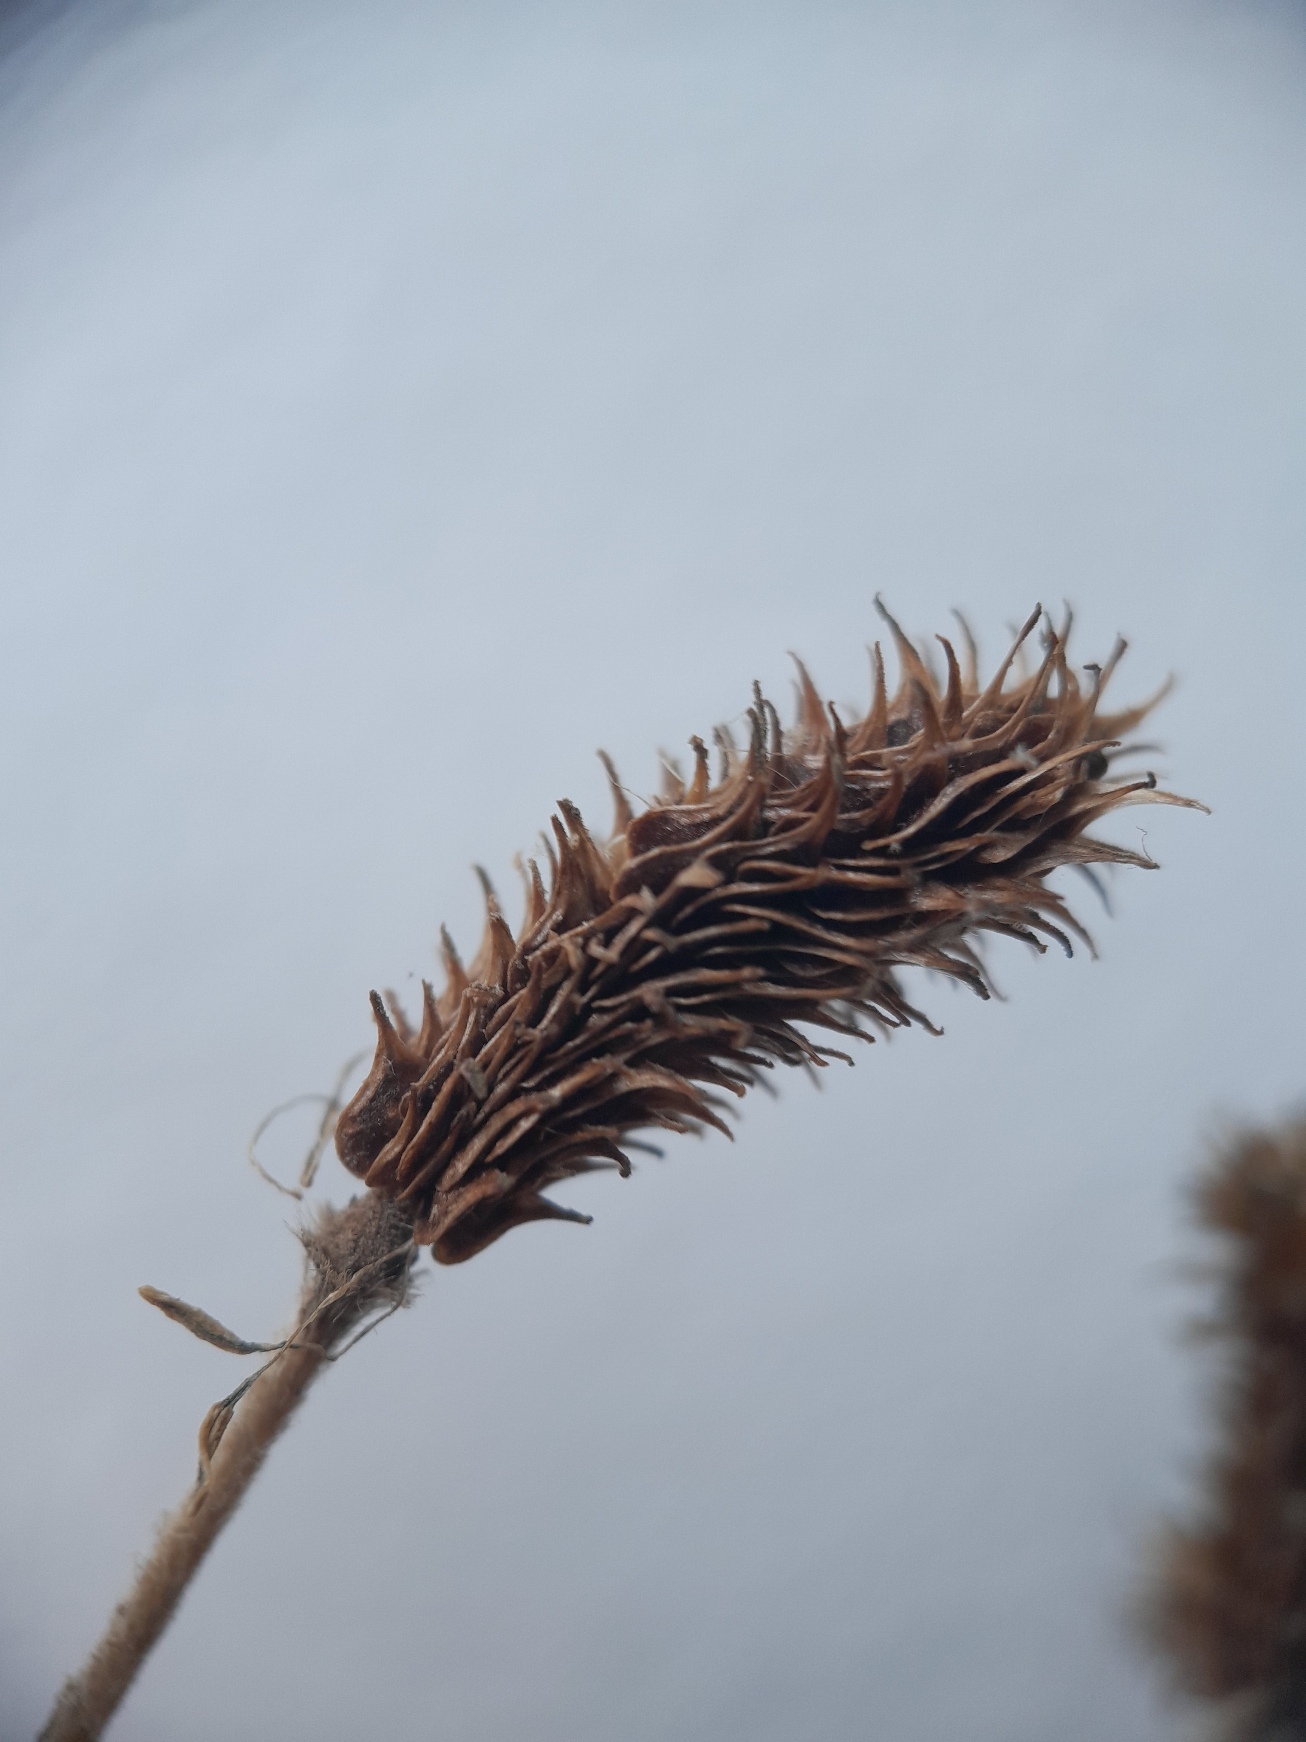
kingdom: Plantae
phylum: Tracheophyta
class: Magnoliopsida
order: Ranunculales
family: Ranunculaceae
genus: Ranunculus
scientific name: Ranunculus psilostachys
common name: Balkan-ranunkel
